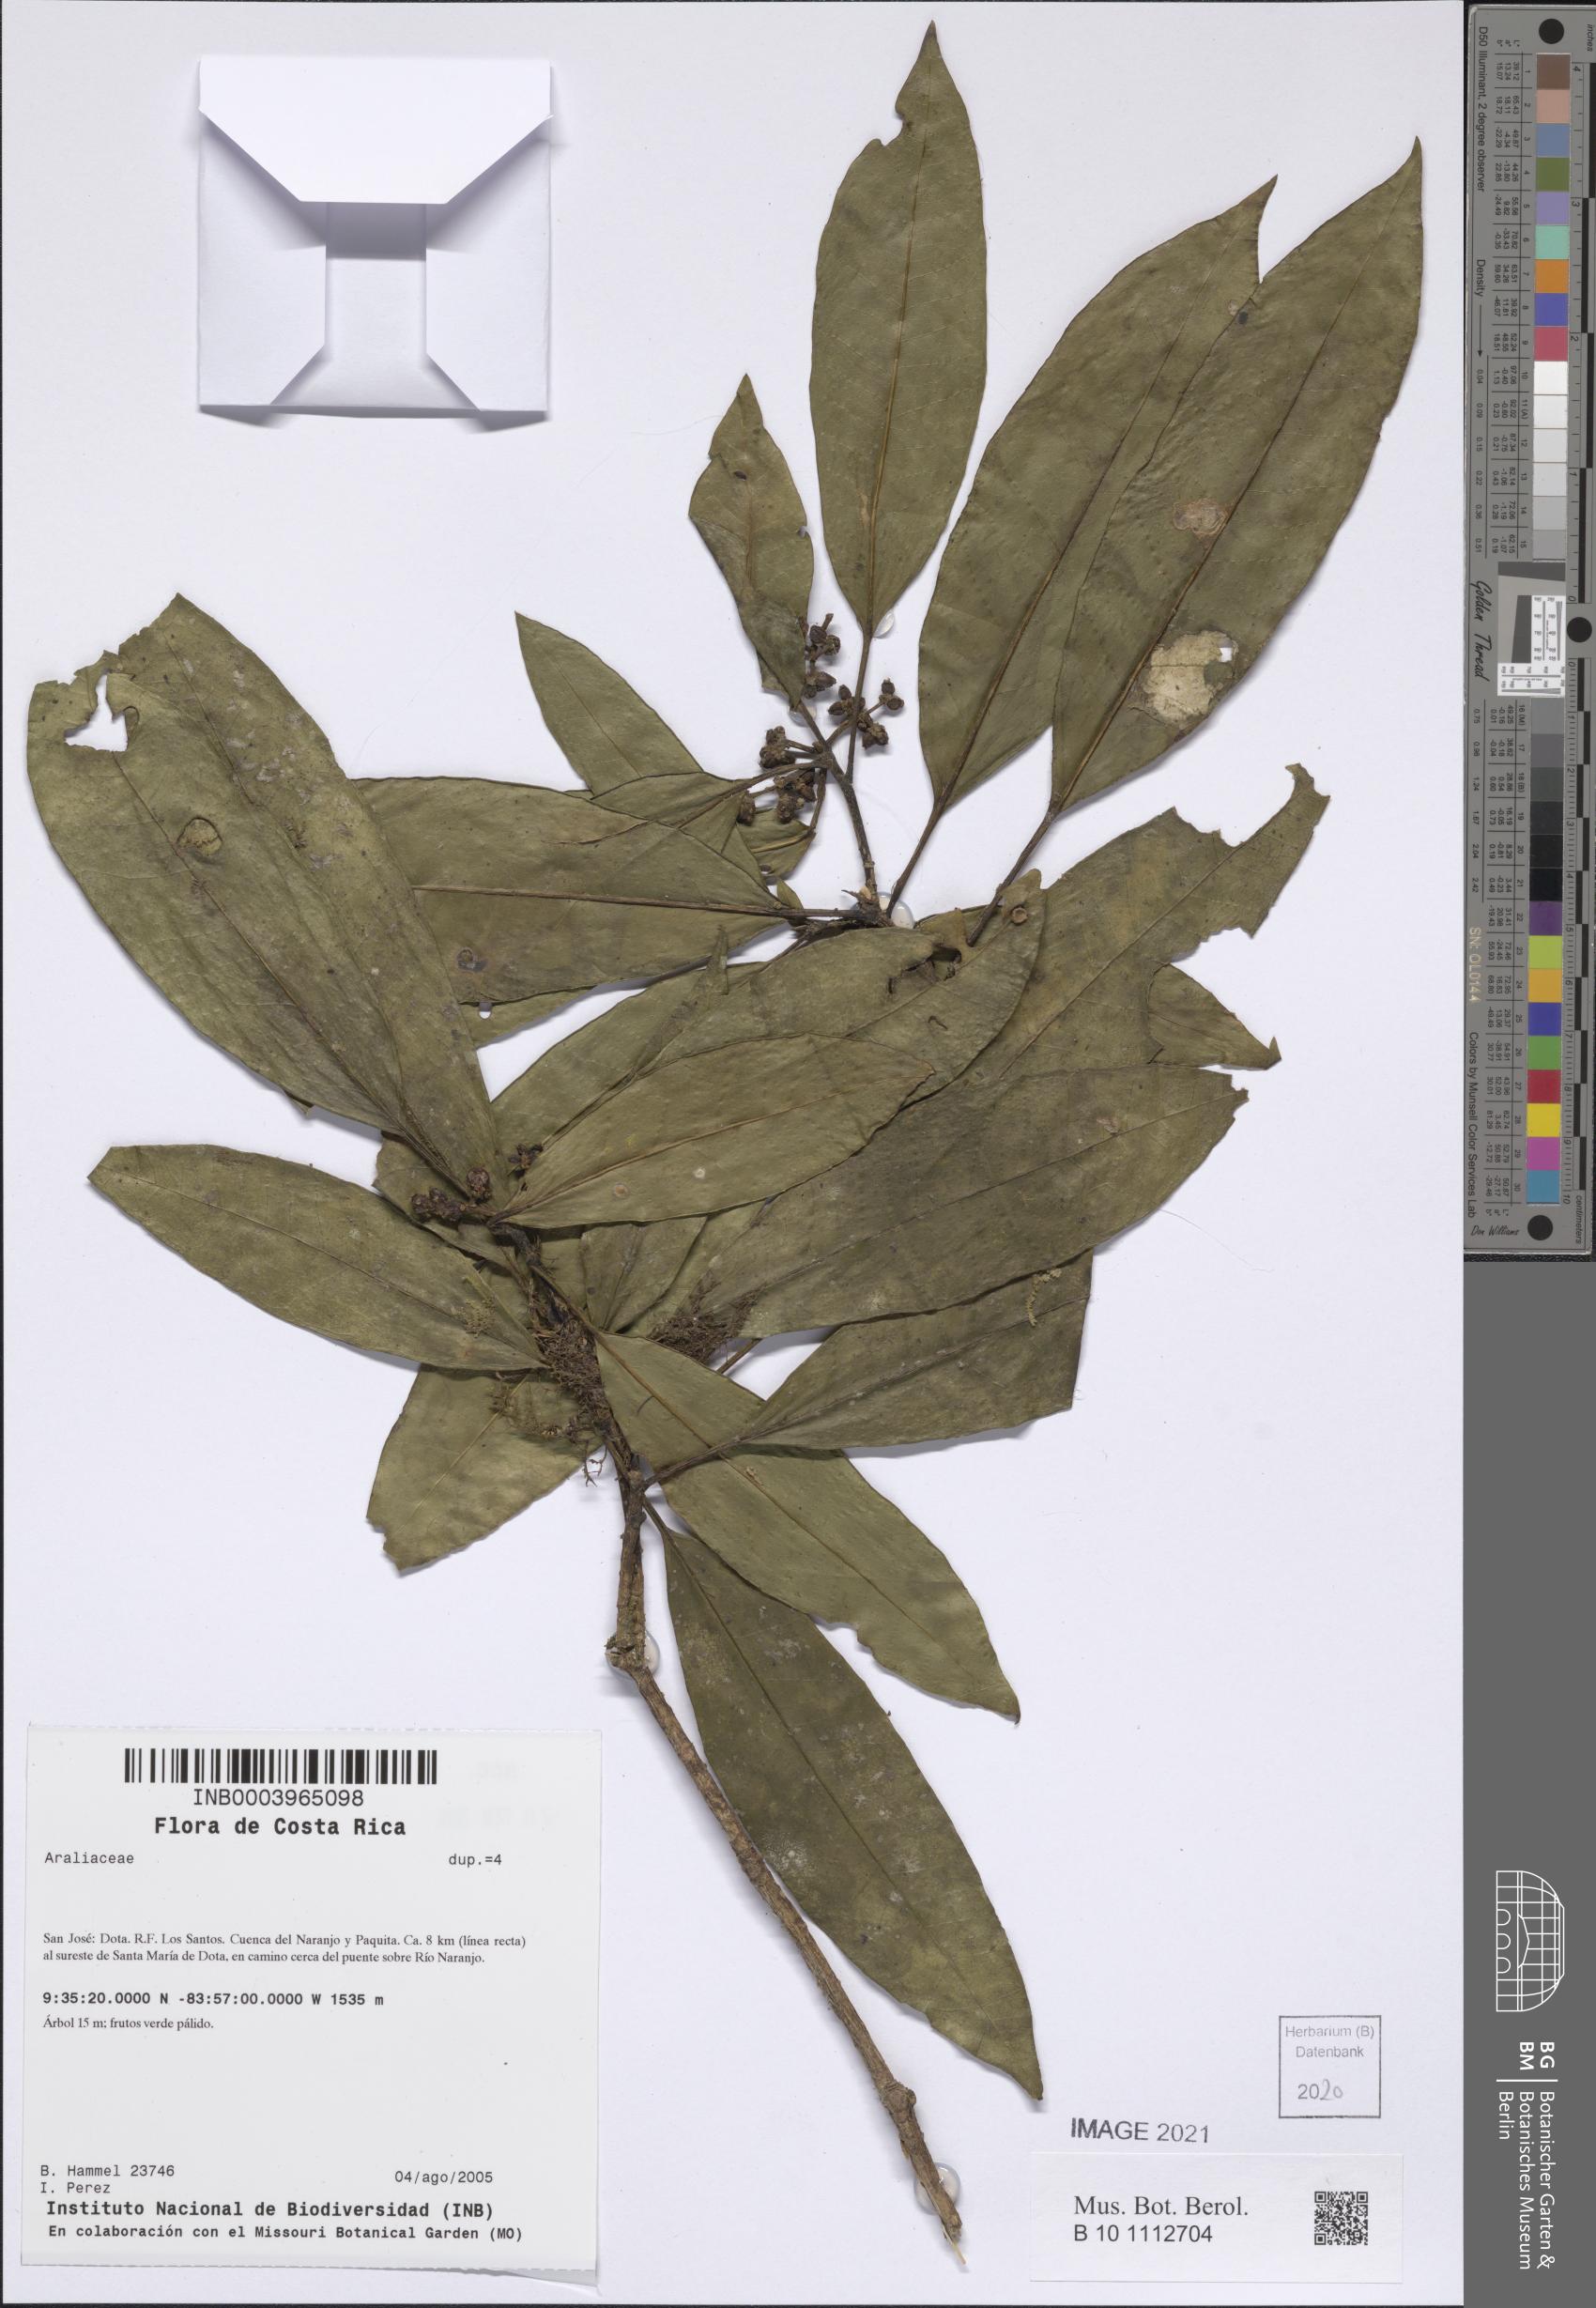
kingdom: Plantae
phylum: Tracheophyta
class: Magnoliopsida
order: Apiales
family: Araliaceae
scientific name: Araliaceae
